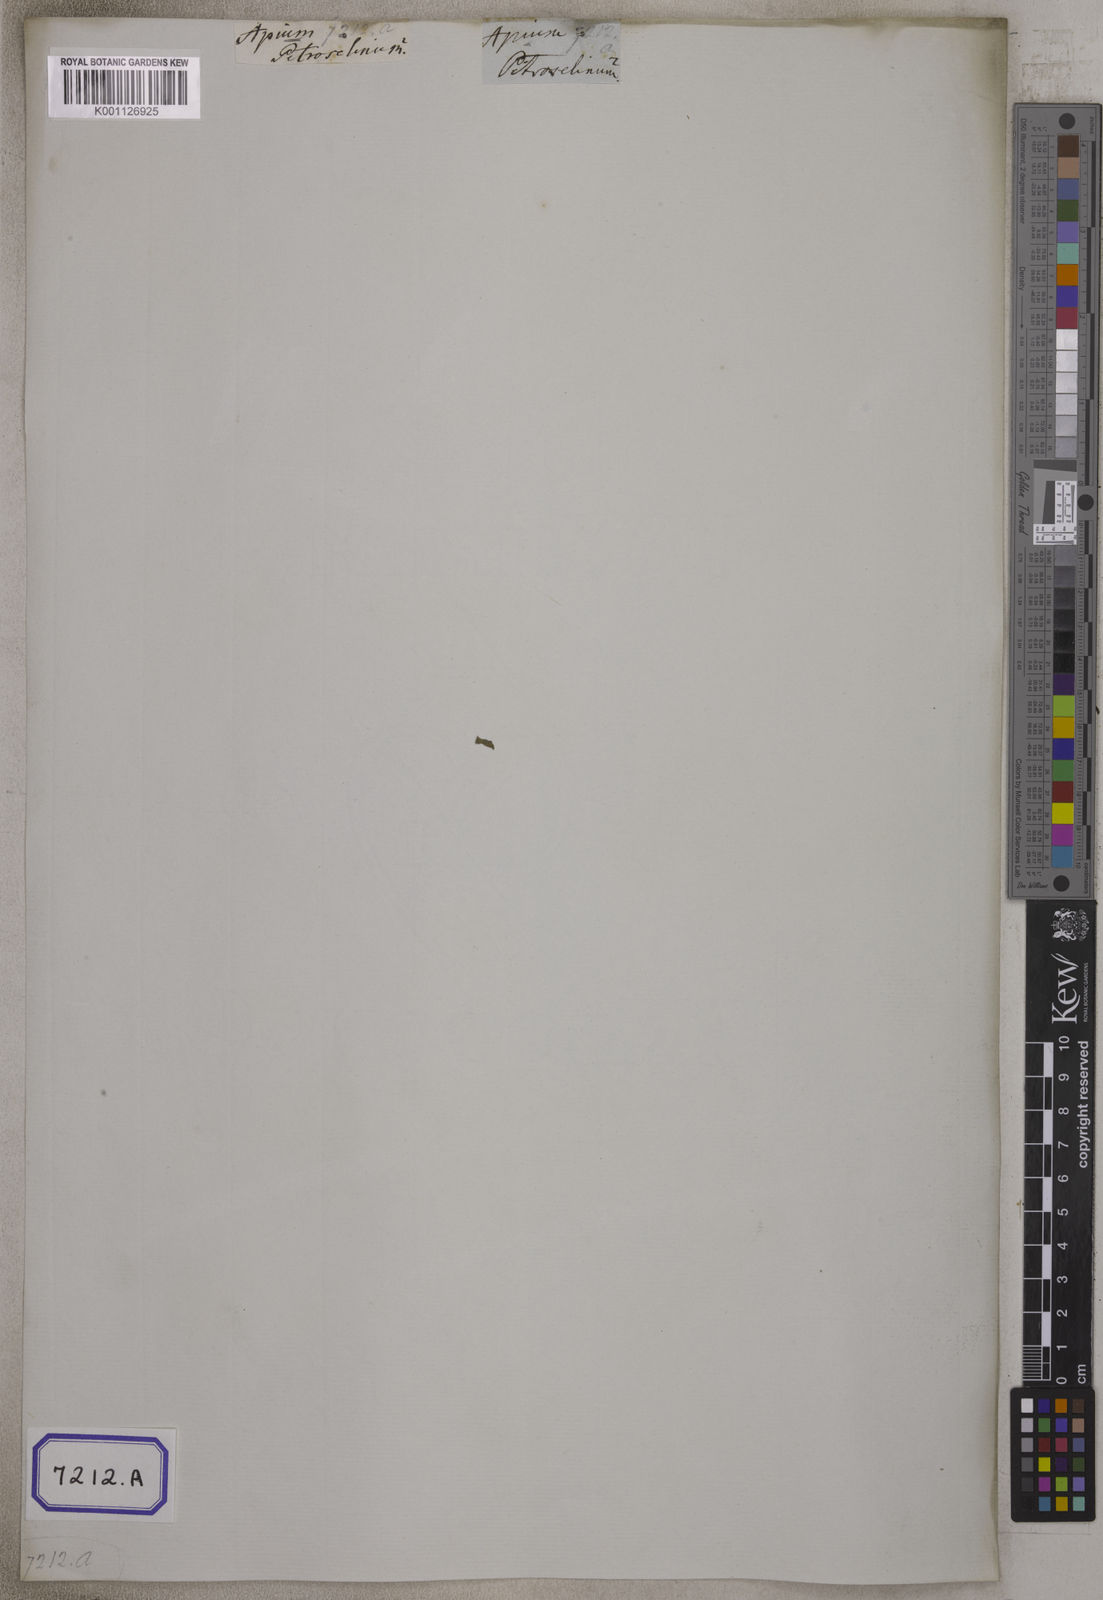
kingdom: Plantae
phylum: Tracheophyta
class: Magnoliopsida
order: Apiales
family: Apiaceae
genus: Apium
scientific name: Apium graveolens
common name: Wild celery
